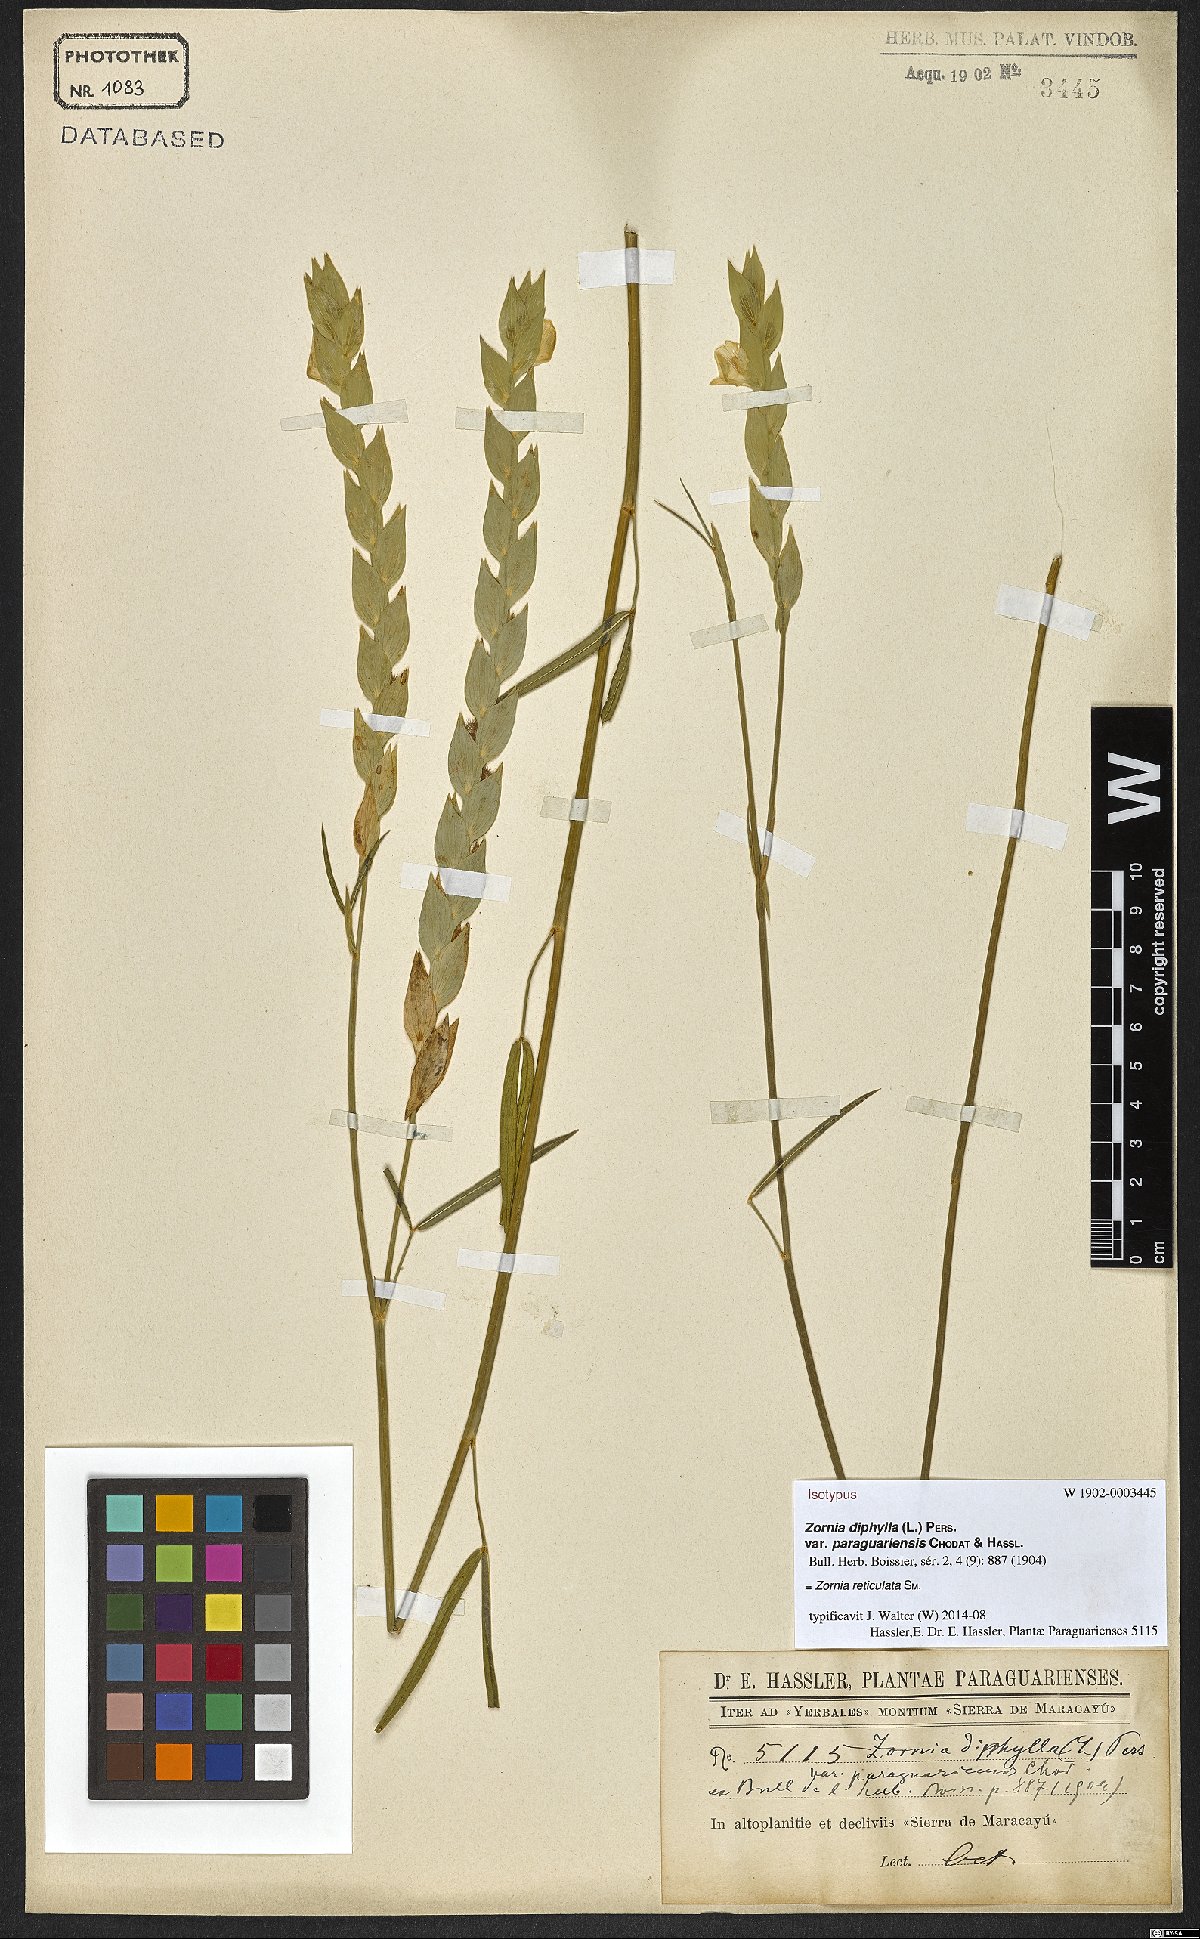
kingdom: Plantae
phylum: Tracheophyta
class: Magnoliopsida
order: Fabales
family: Fabaceae
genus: Zornia
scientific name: Zornia reticulata
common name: Reticulate viperina
